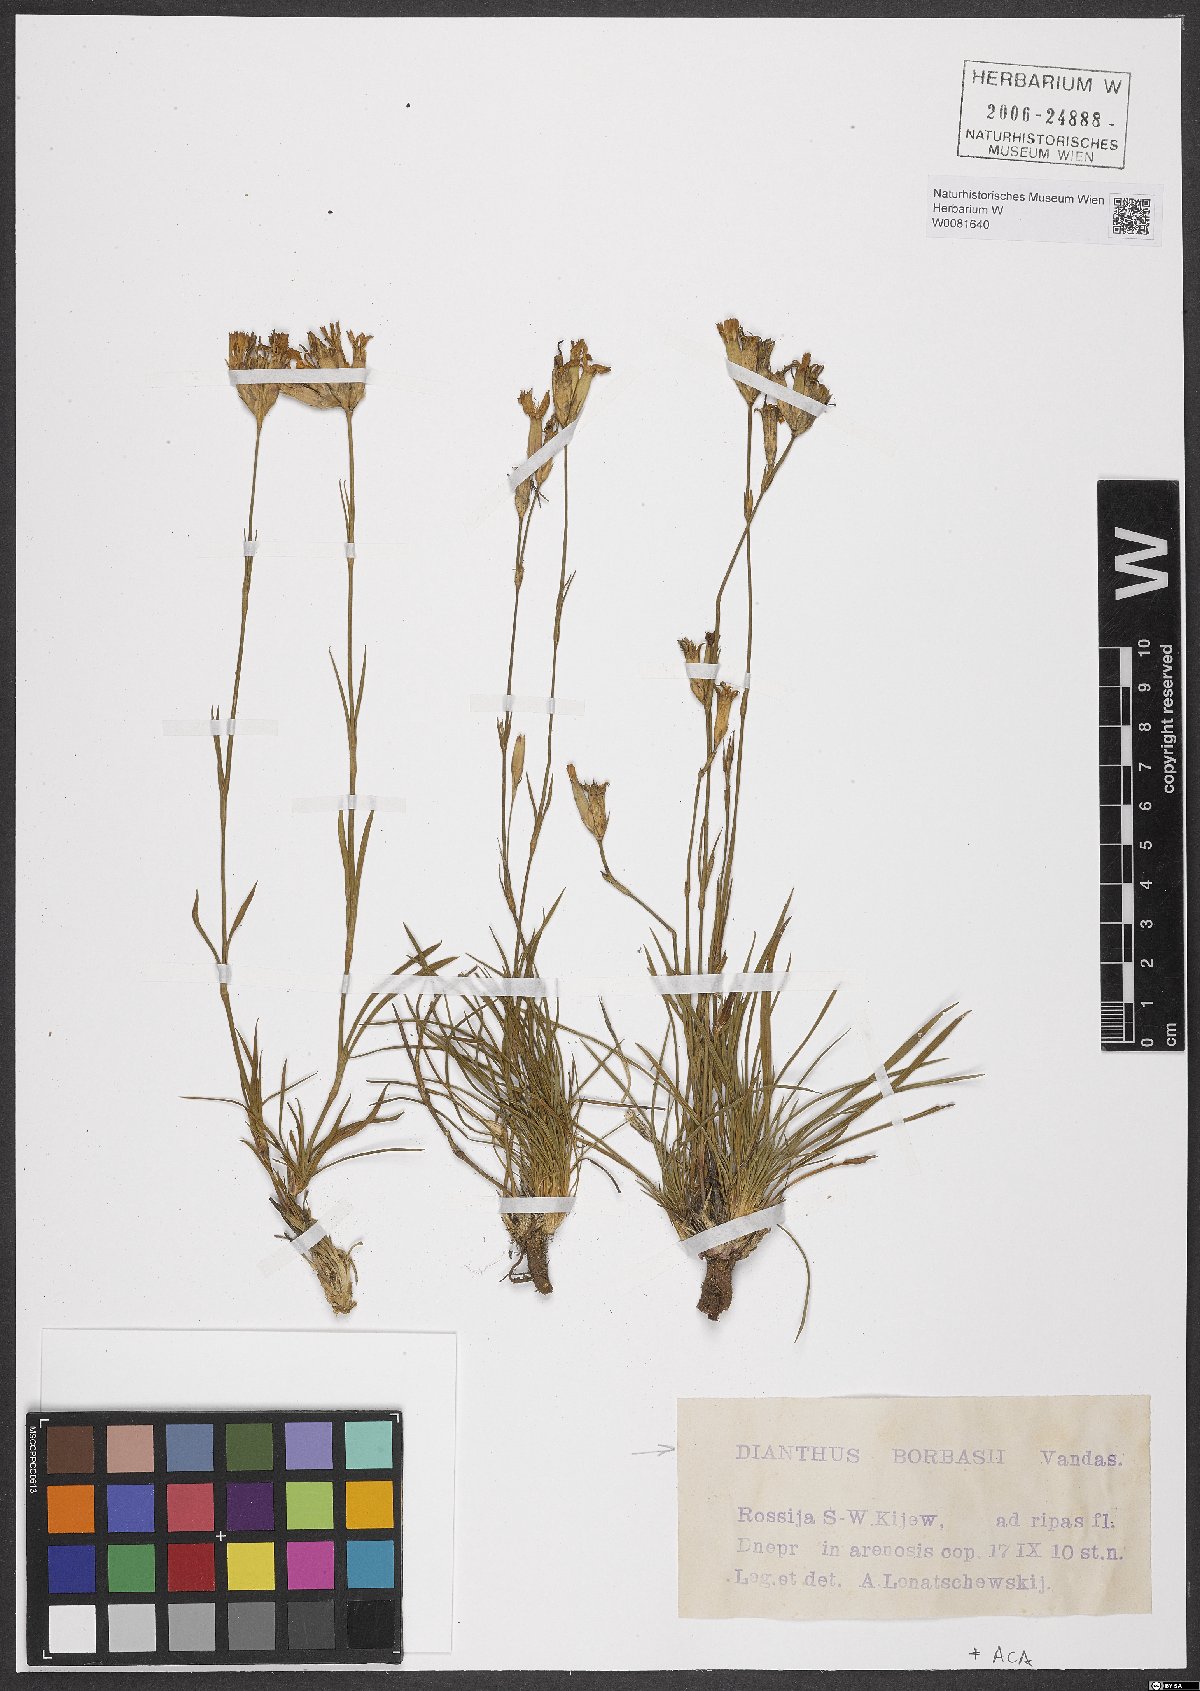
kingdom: Plantae
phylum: Tracheophyta
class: Magnoliopsida
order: Caryophyllales
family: Caryophyllaceae
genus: Dianthus
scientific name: Dianthus borbasii
